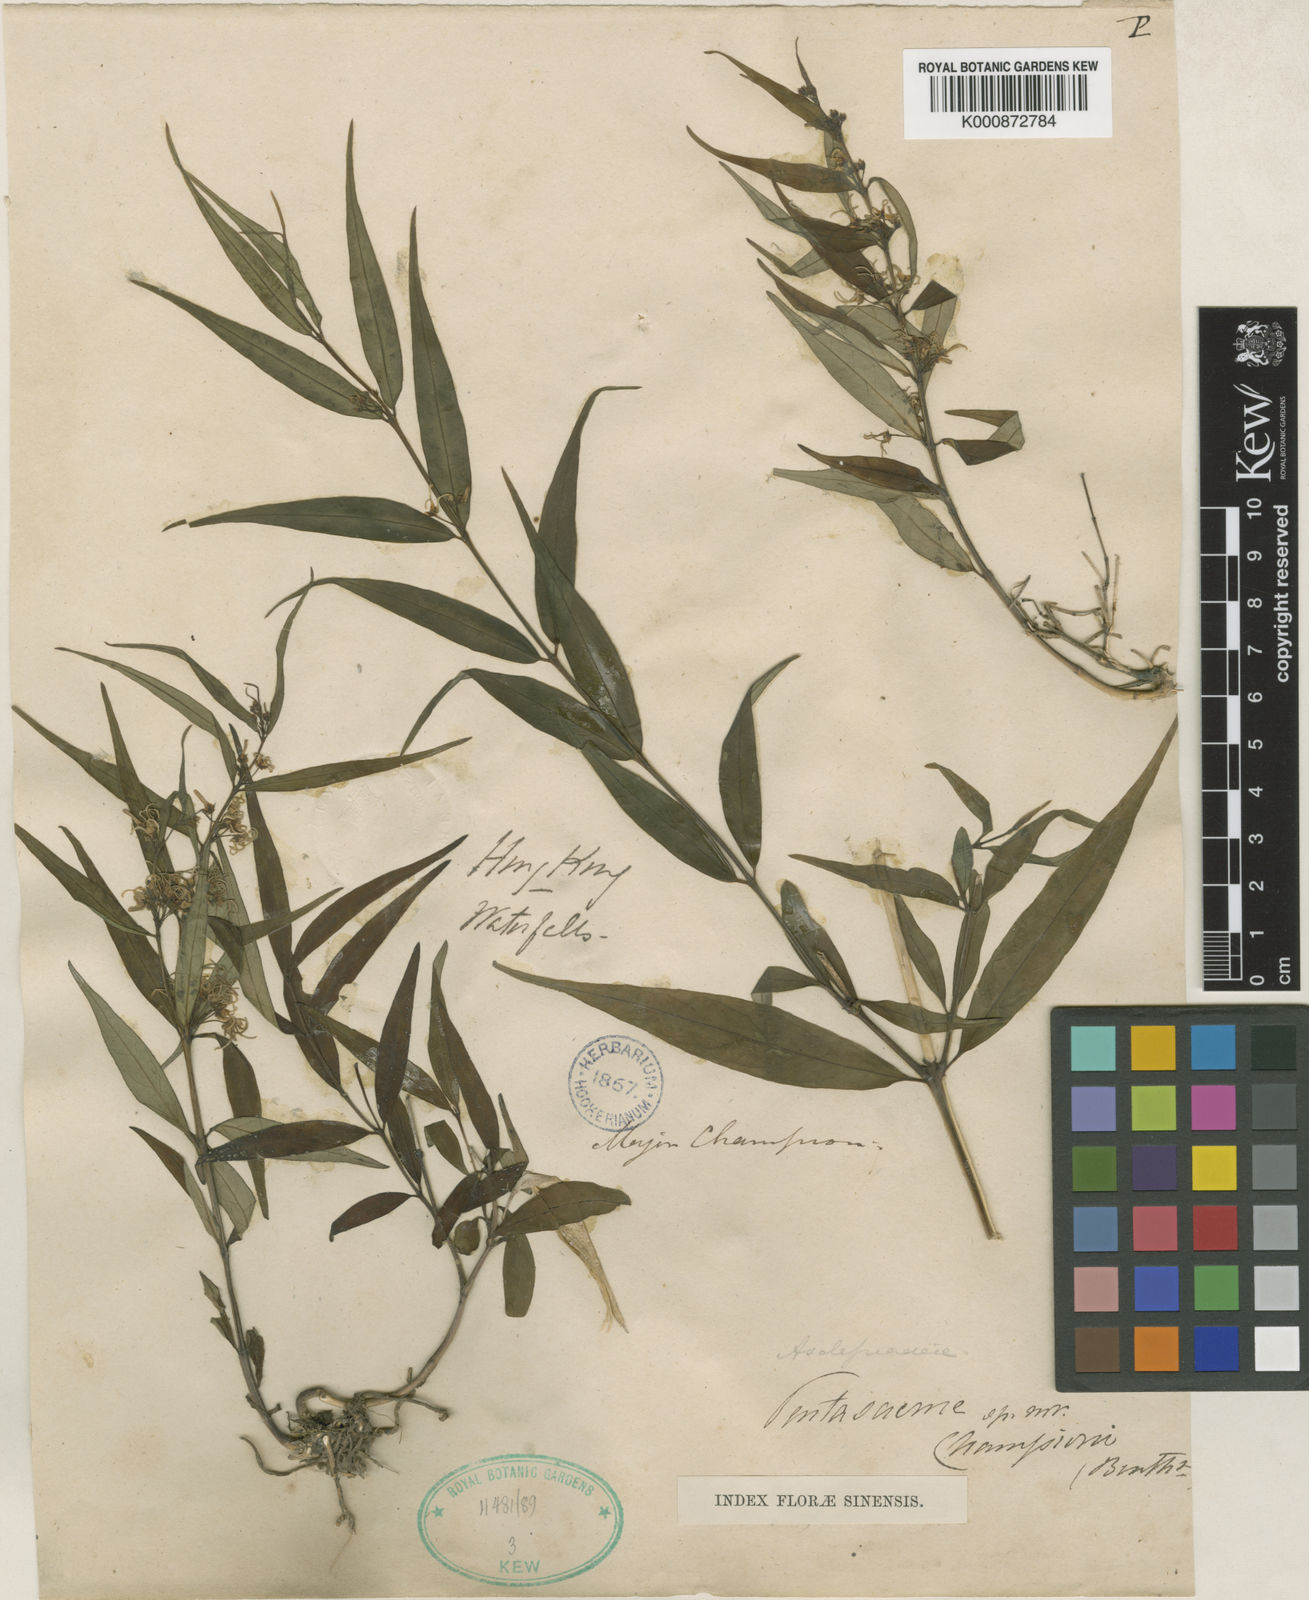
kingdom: Plantae
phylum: Tracheophyta
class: Magnoliopsida
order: Gentianales
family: Apocynaceae
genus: Pentasachme
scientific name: Pentasachme caudatum
